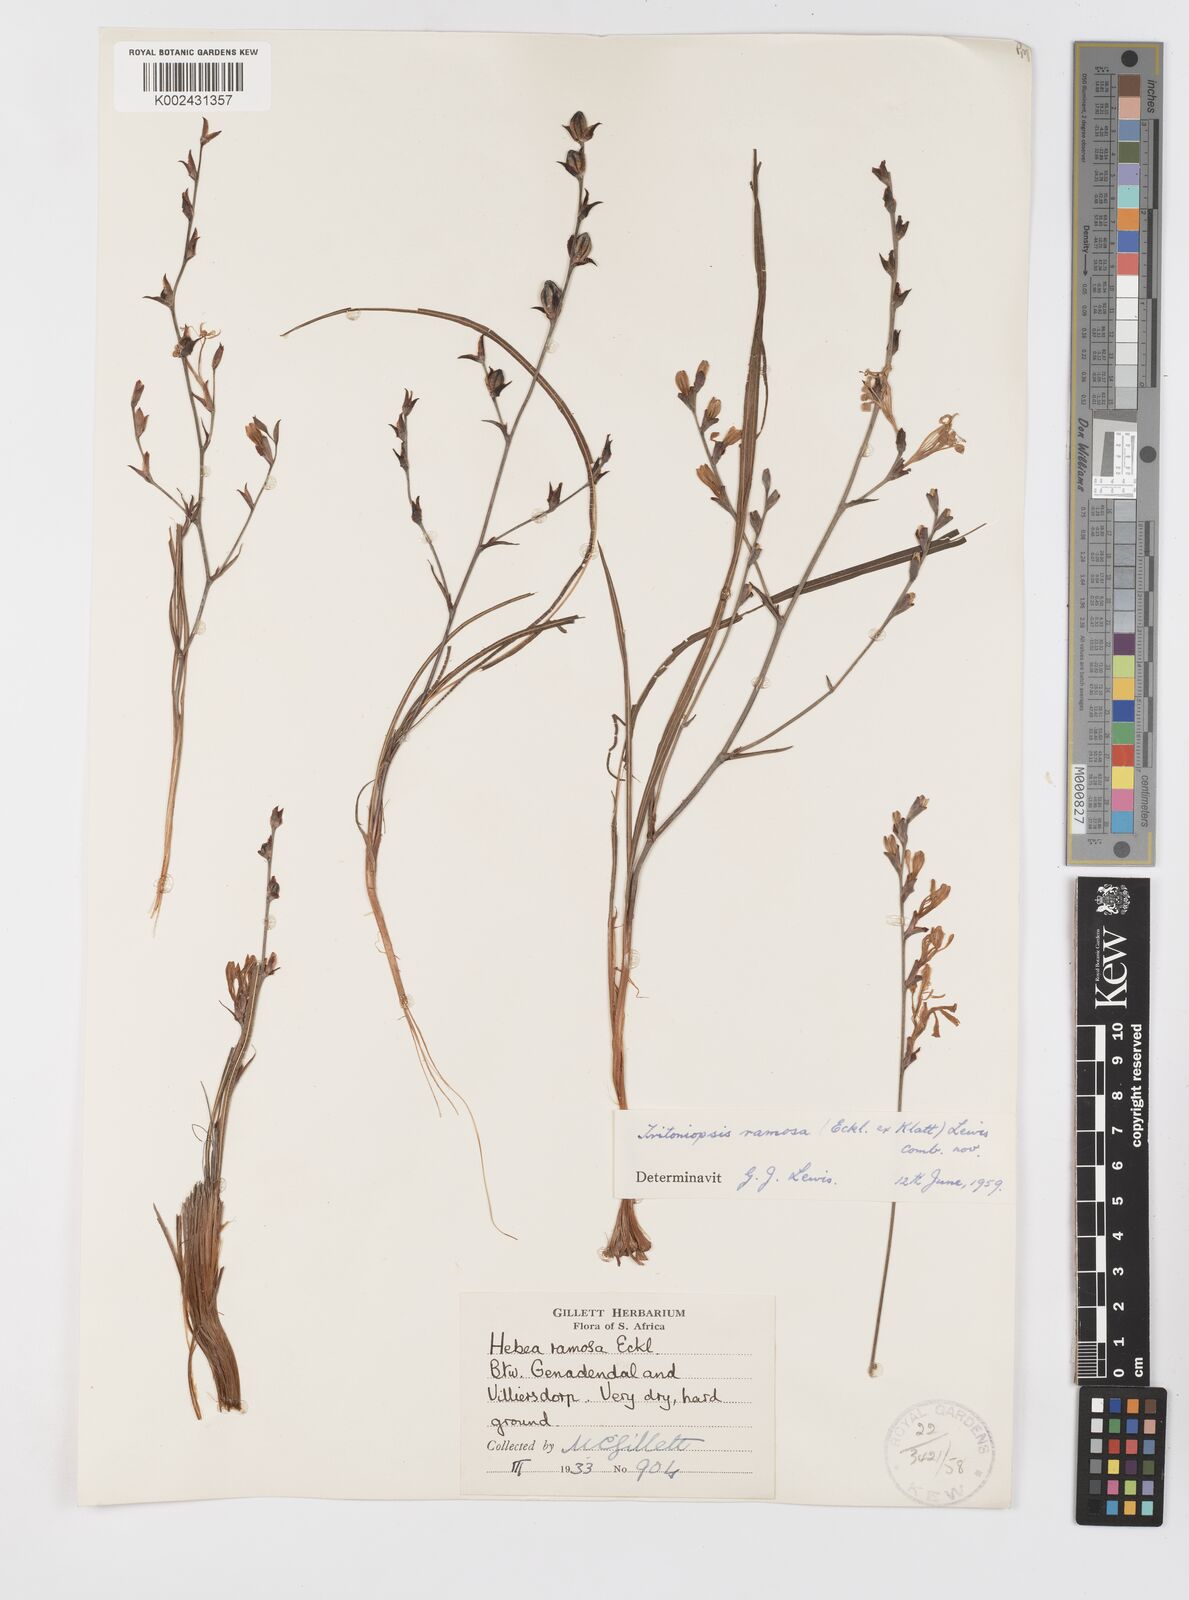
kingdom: Plantae
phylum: Tracheophyta
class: Liliopsida
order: Asparagales
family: Iridaceae
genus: Tritoniopsis
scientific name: Tritoniopsis ramosa
